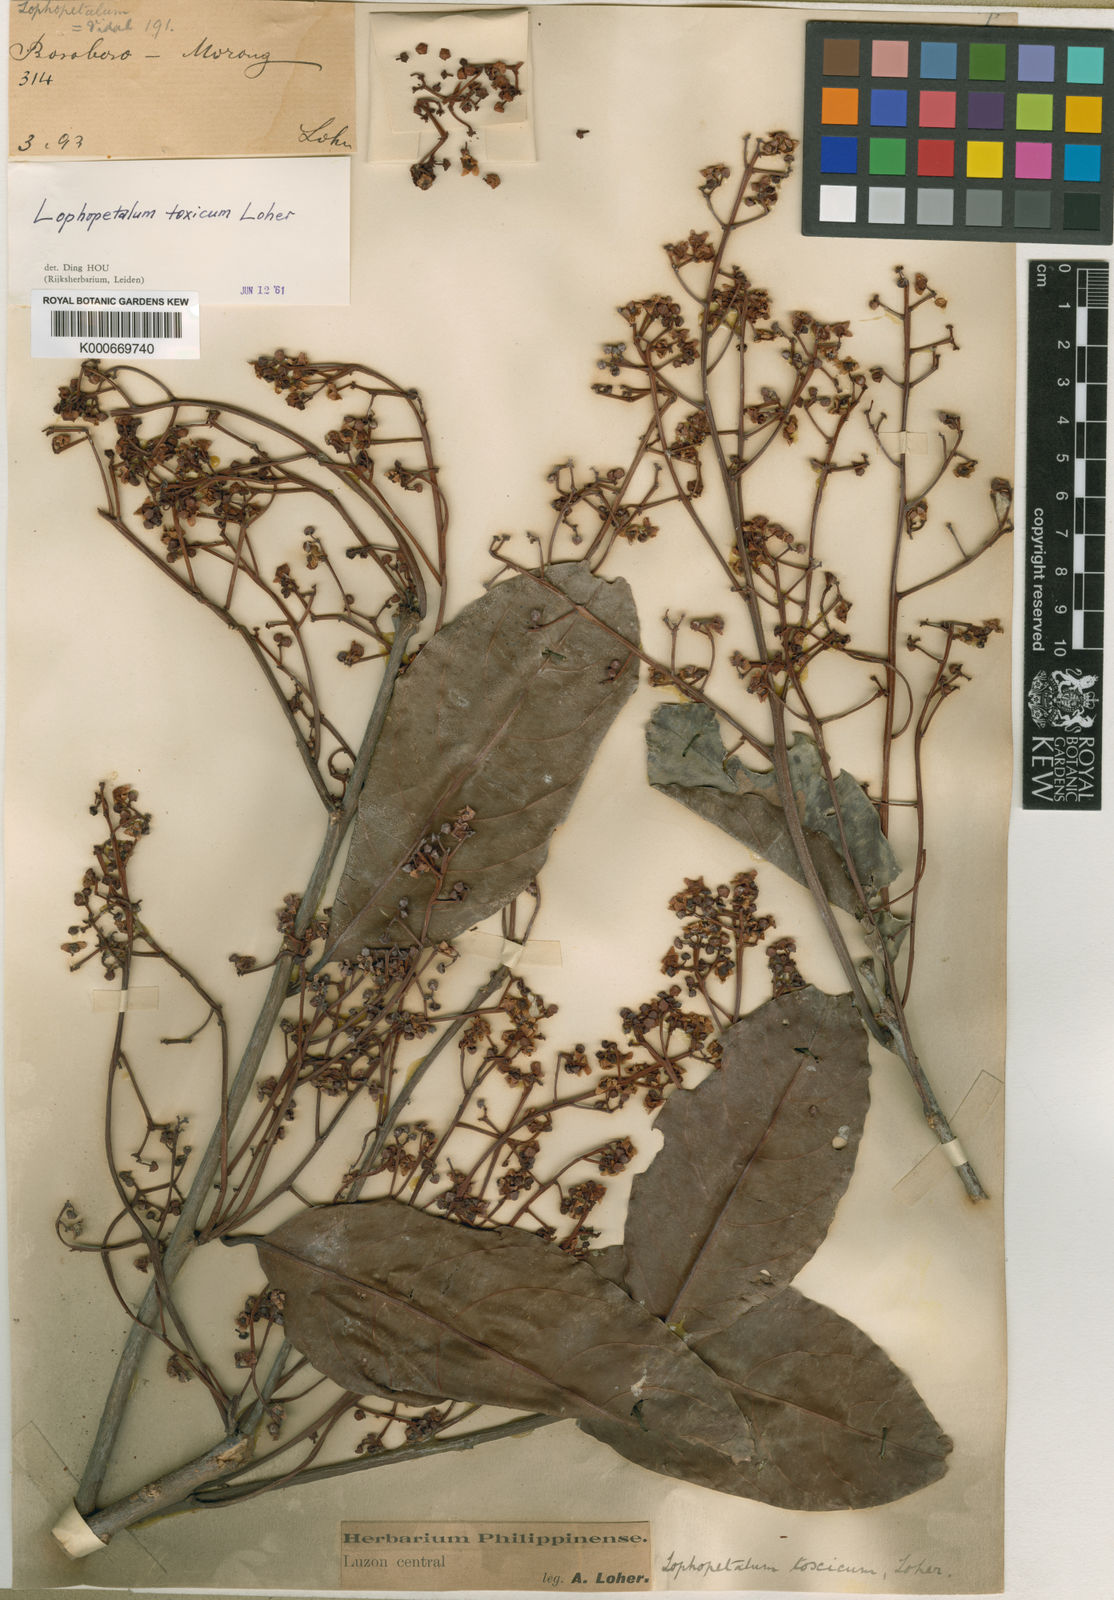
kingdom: Plantae
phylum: Tracheophyta
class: Magnoliopsida
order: Celastrales
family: Celastraceae
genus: Lophopetalum
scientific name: Lophopetalum
